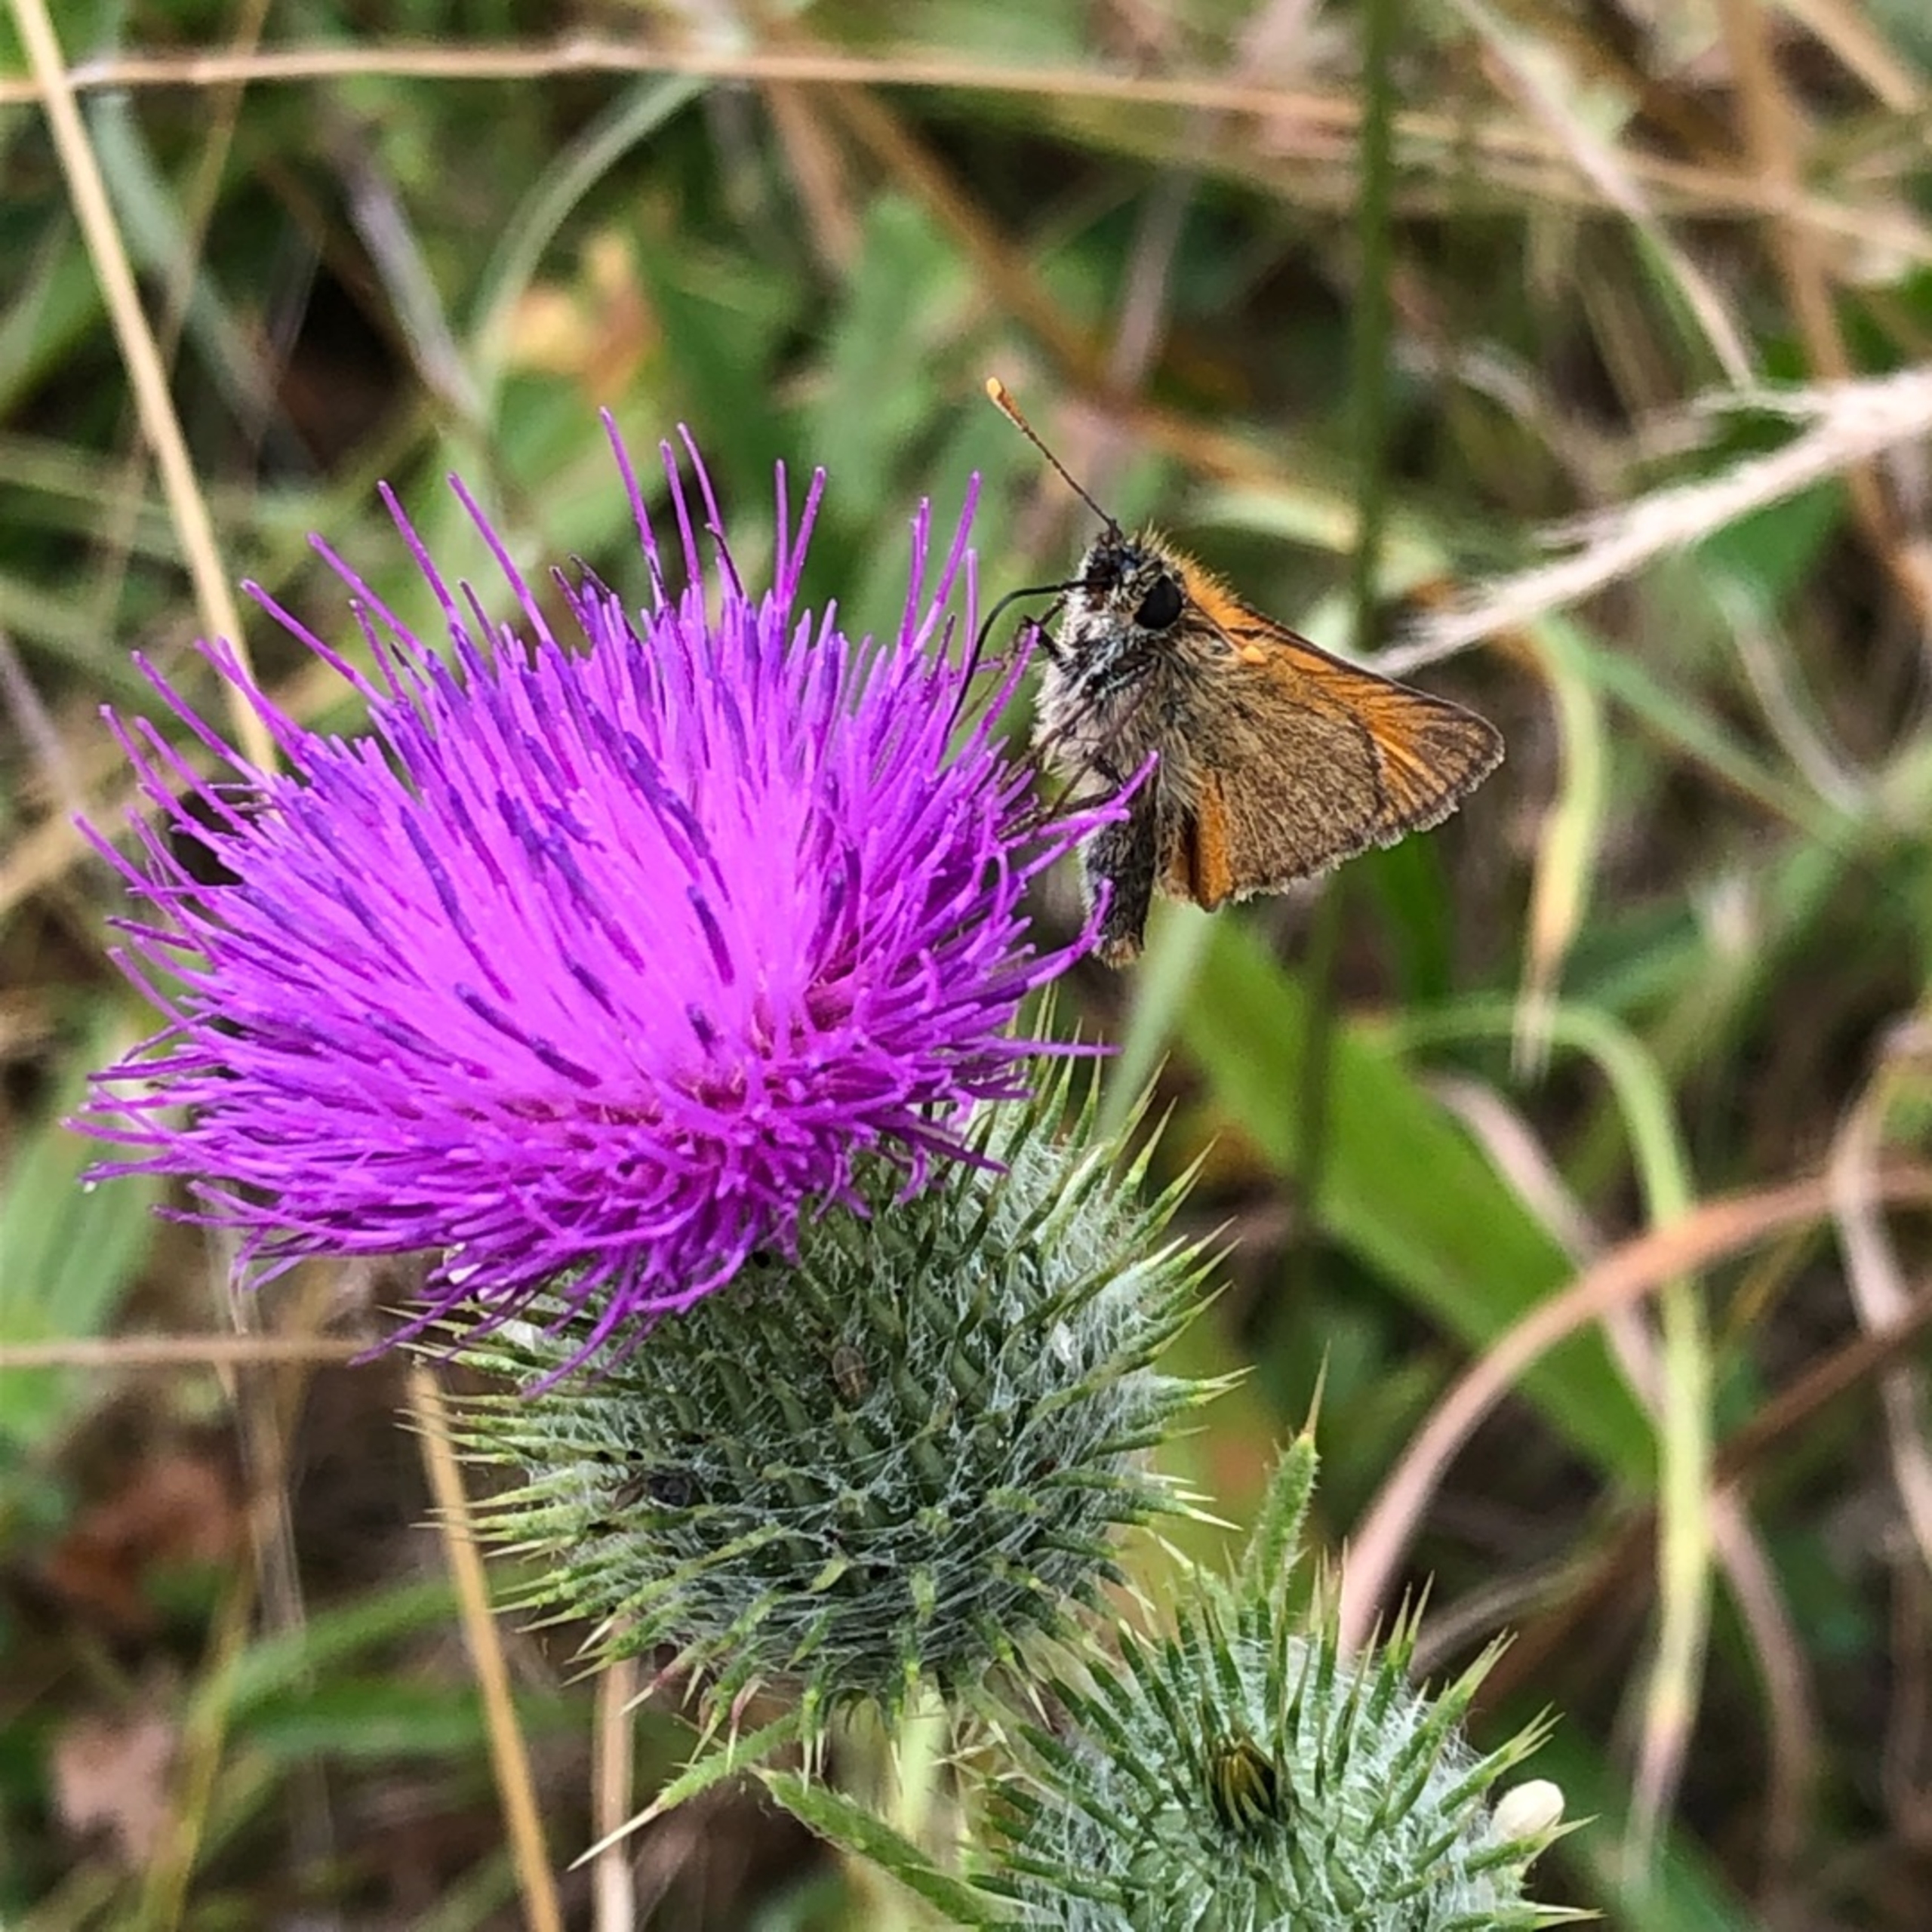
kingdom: Animalia
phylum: Arthropoda
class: Insecta
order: Lepidoptera
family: Hesperiidae
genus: Thymelicus
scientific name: Thymelicus sylvestris
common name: Skråstregbredpande
